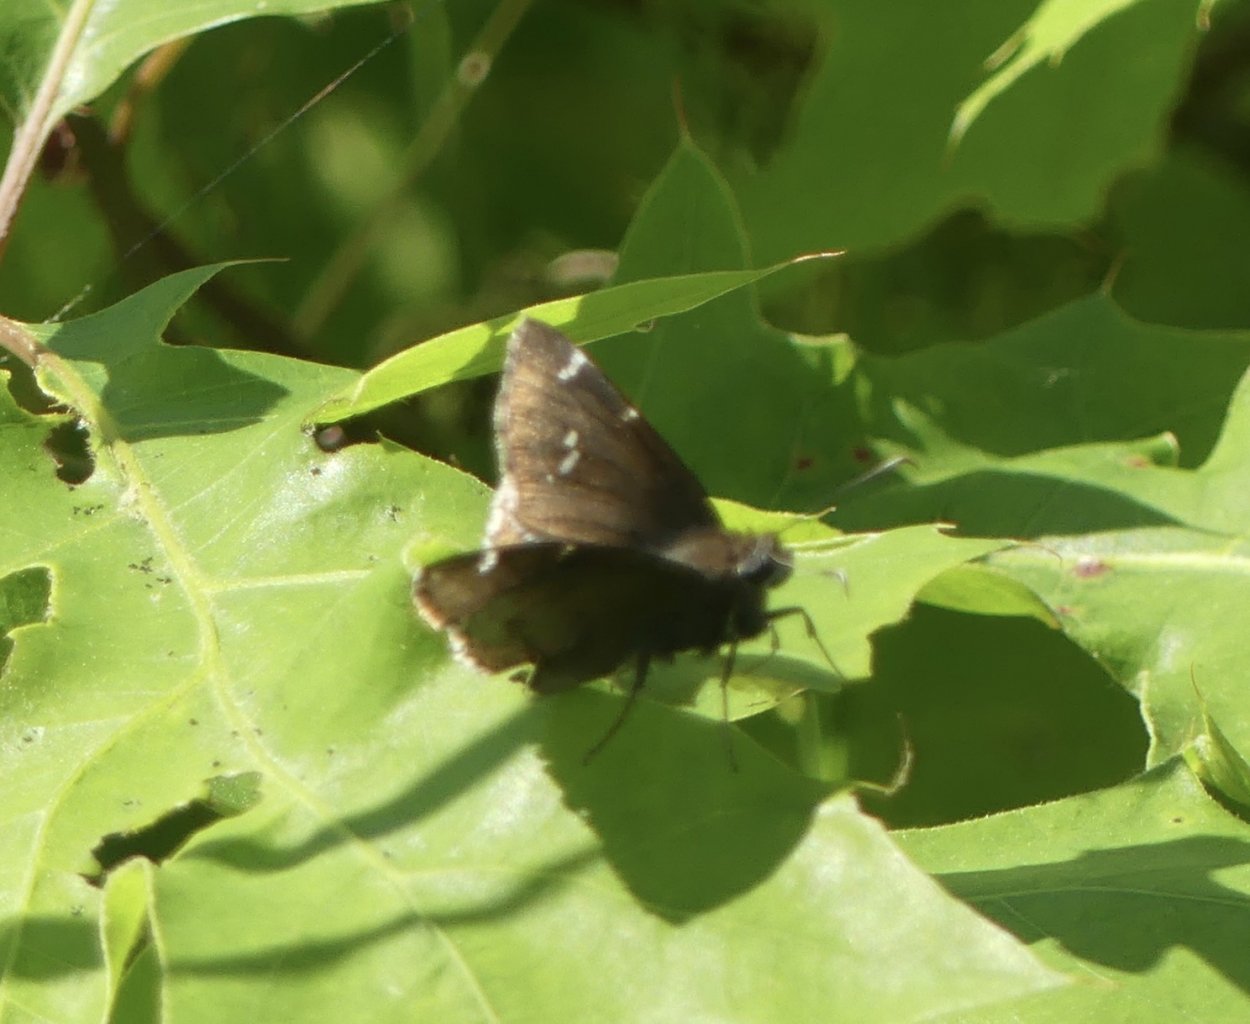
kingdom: Animalia
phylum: Arthropoda
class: Insecta
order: Lepidoptera
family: Hesperiidae
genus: Autochton
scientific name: Autochton
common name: Southern Cloudywing
